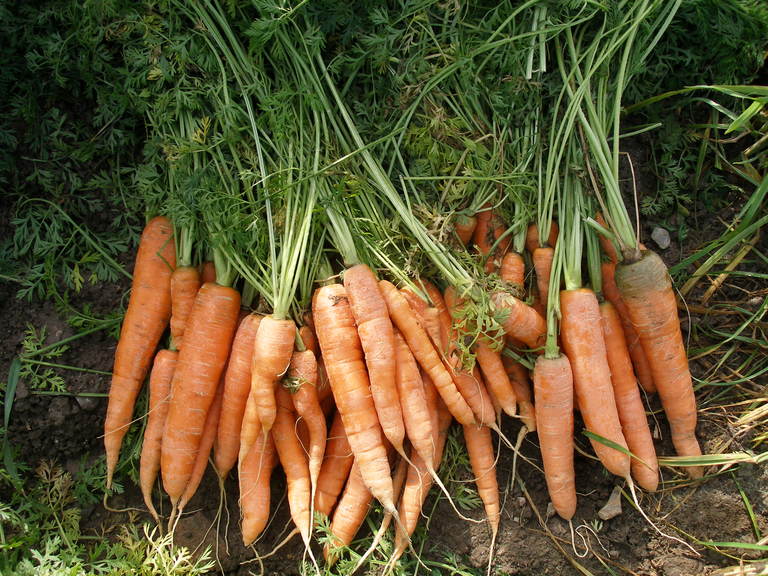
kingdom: Plantae
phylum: Tracheophyta
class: Magnoliopsida
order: Apiales
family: Apiaceae
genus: Daucus
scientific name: Daucus carota
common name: Wild carrot
